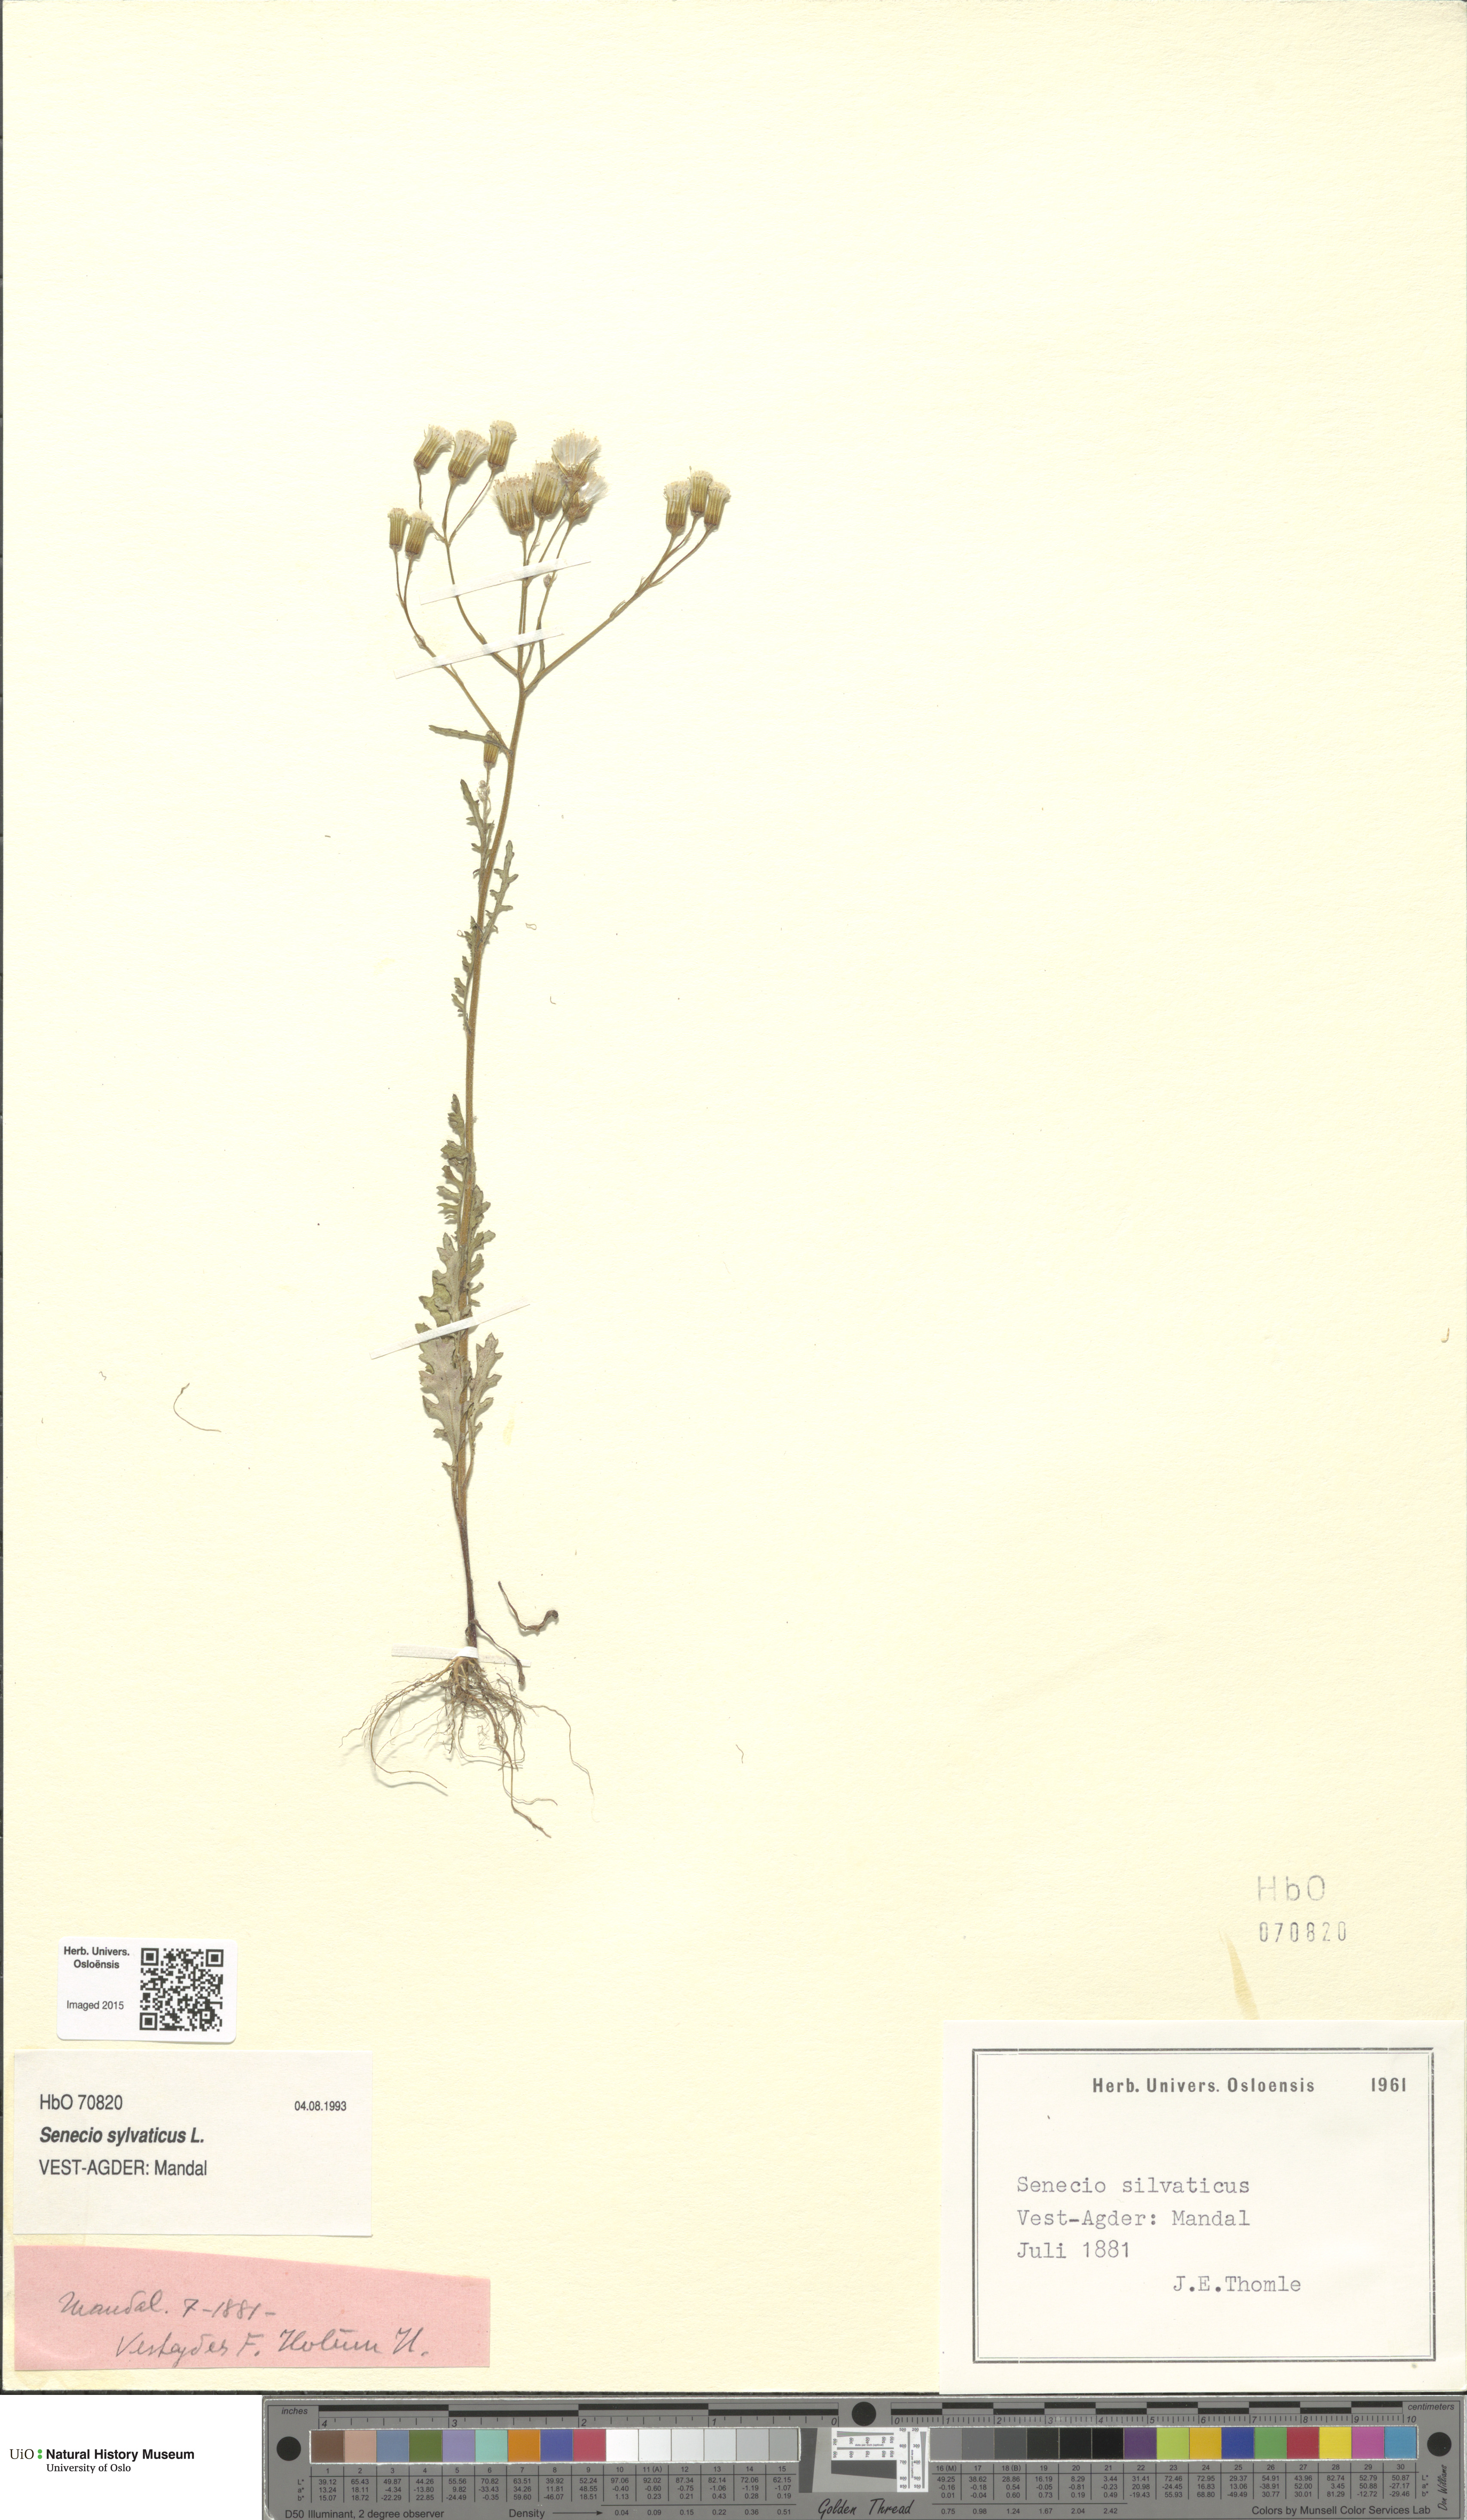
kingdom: Plantae
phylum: Tracheophyta
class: Magnoliopsida
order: Asterales
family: Asteraceae
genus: Senecio
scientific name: Senecio sylvaticus
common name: Woodland ragwort
